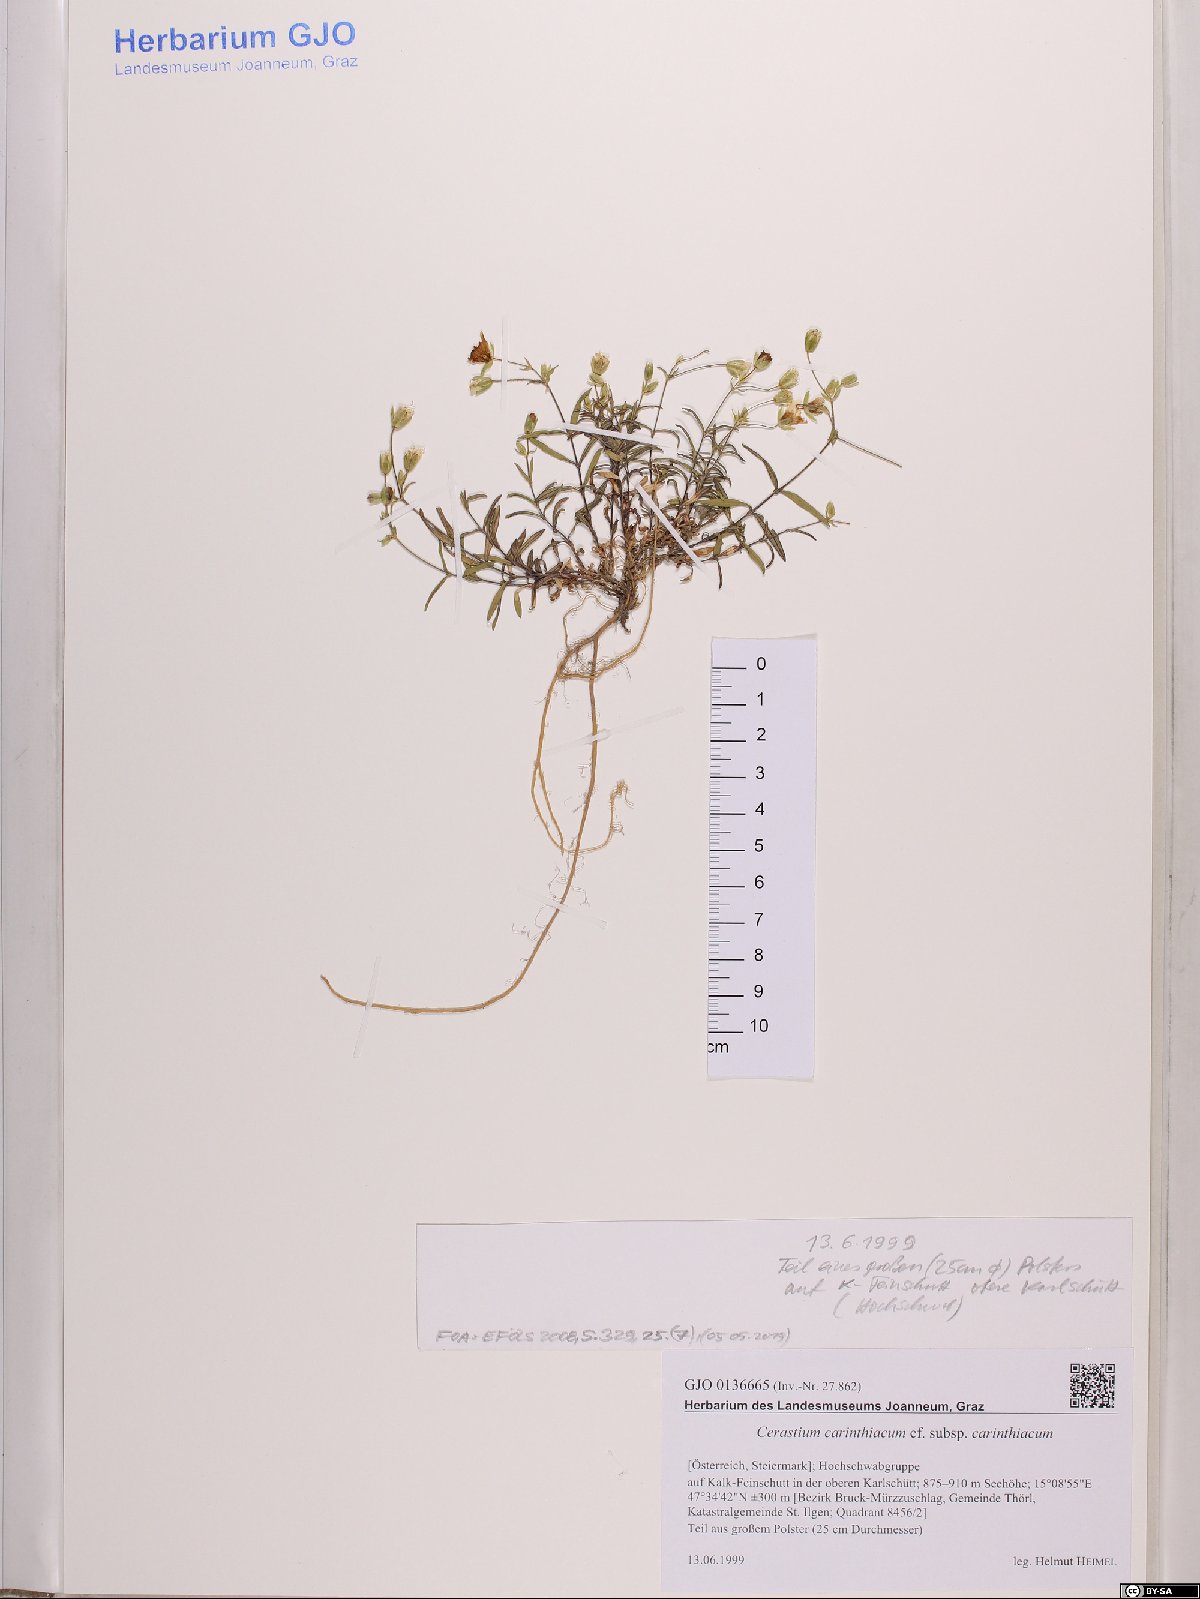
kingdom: Plantae
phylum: Tracheophyta
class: Magnoliopsida
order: Caryophyllales
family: Caryophyllaceae
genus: Cerastium
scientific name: Cerastium carinthiacum
